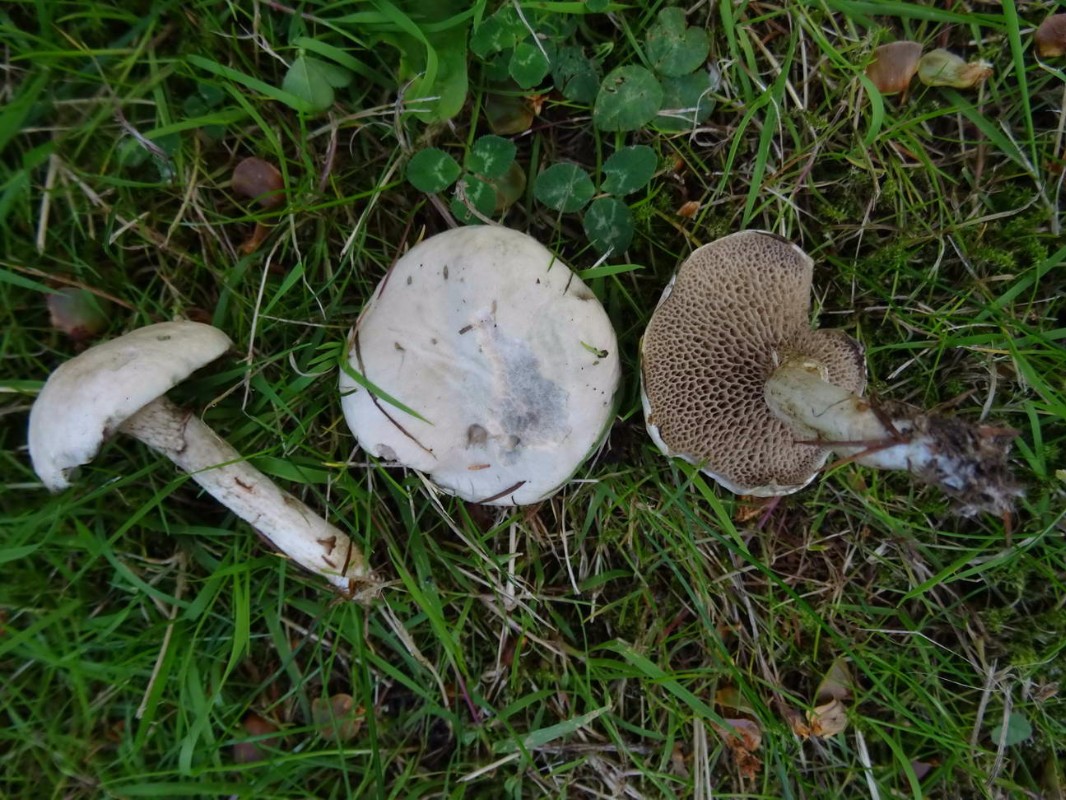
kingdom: Fungi
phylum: Basidiomycota
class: Agaricomycetes
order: Boletales
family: Suillaceae
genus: Suillus
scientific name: Suillus viscidus
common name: olivengrå slimrørhat
